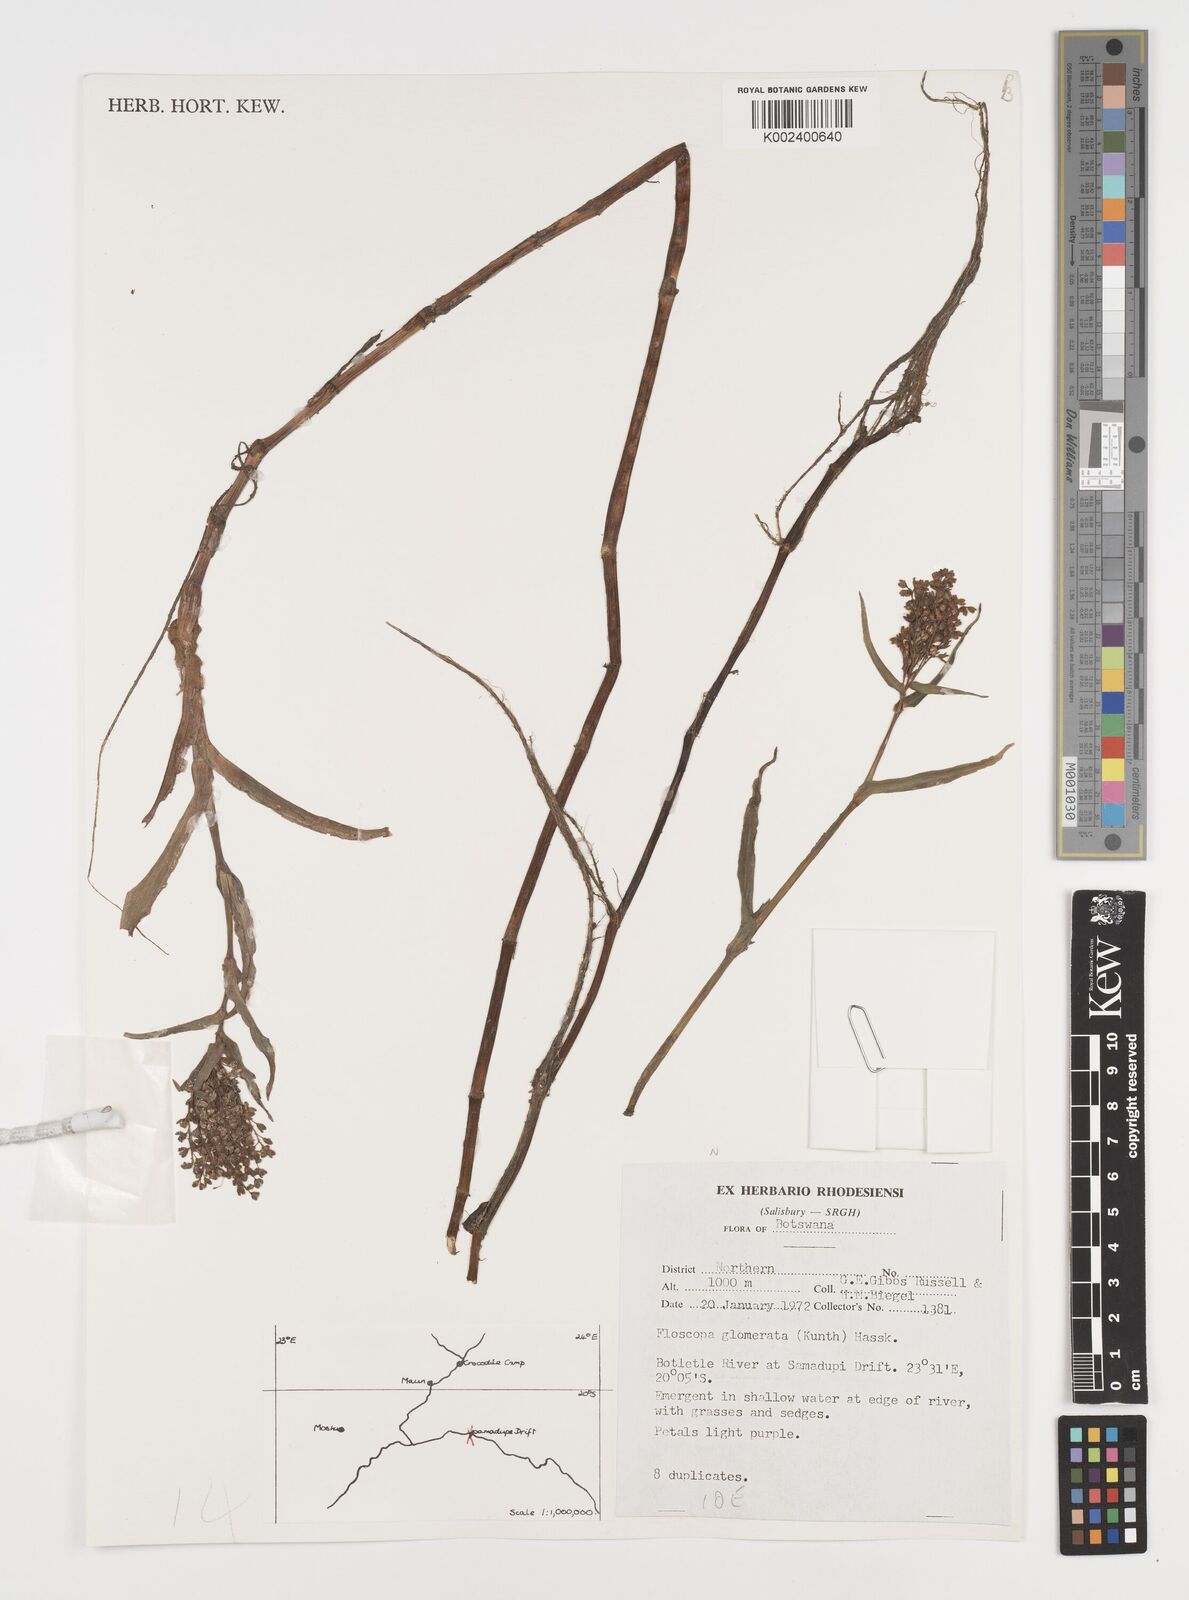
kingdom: Plantae
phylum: Tracheophyta
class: Liliopsida
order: Commelinales
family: Commelinaceae
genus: Floscopa
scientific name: Floscopa glomerata
